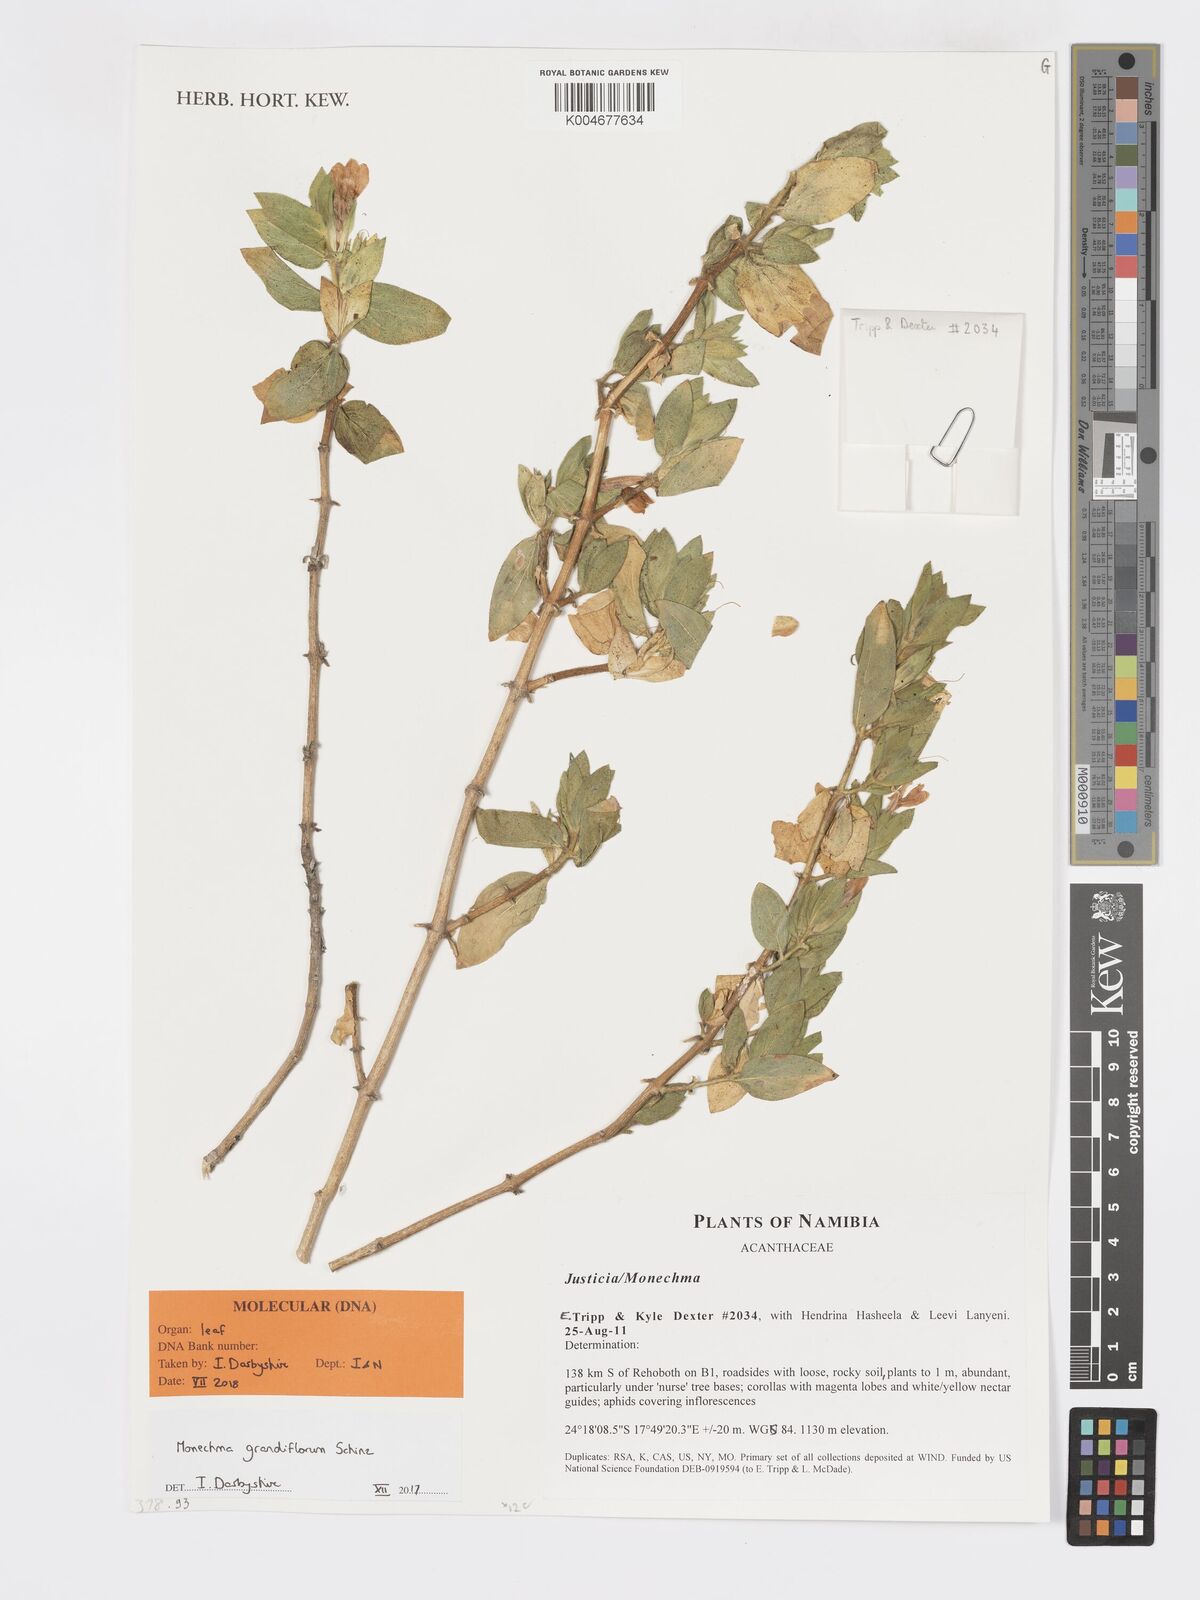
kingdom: Plantae
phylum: Tracheophyta
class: Magnoliopsida
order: Lamiales
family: Acanthaceae
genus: Pogonospermum
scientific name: Pogonospermum
